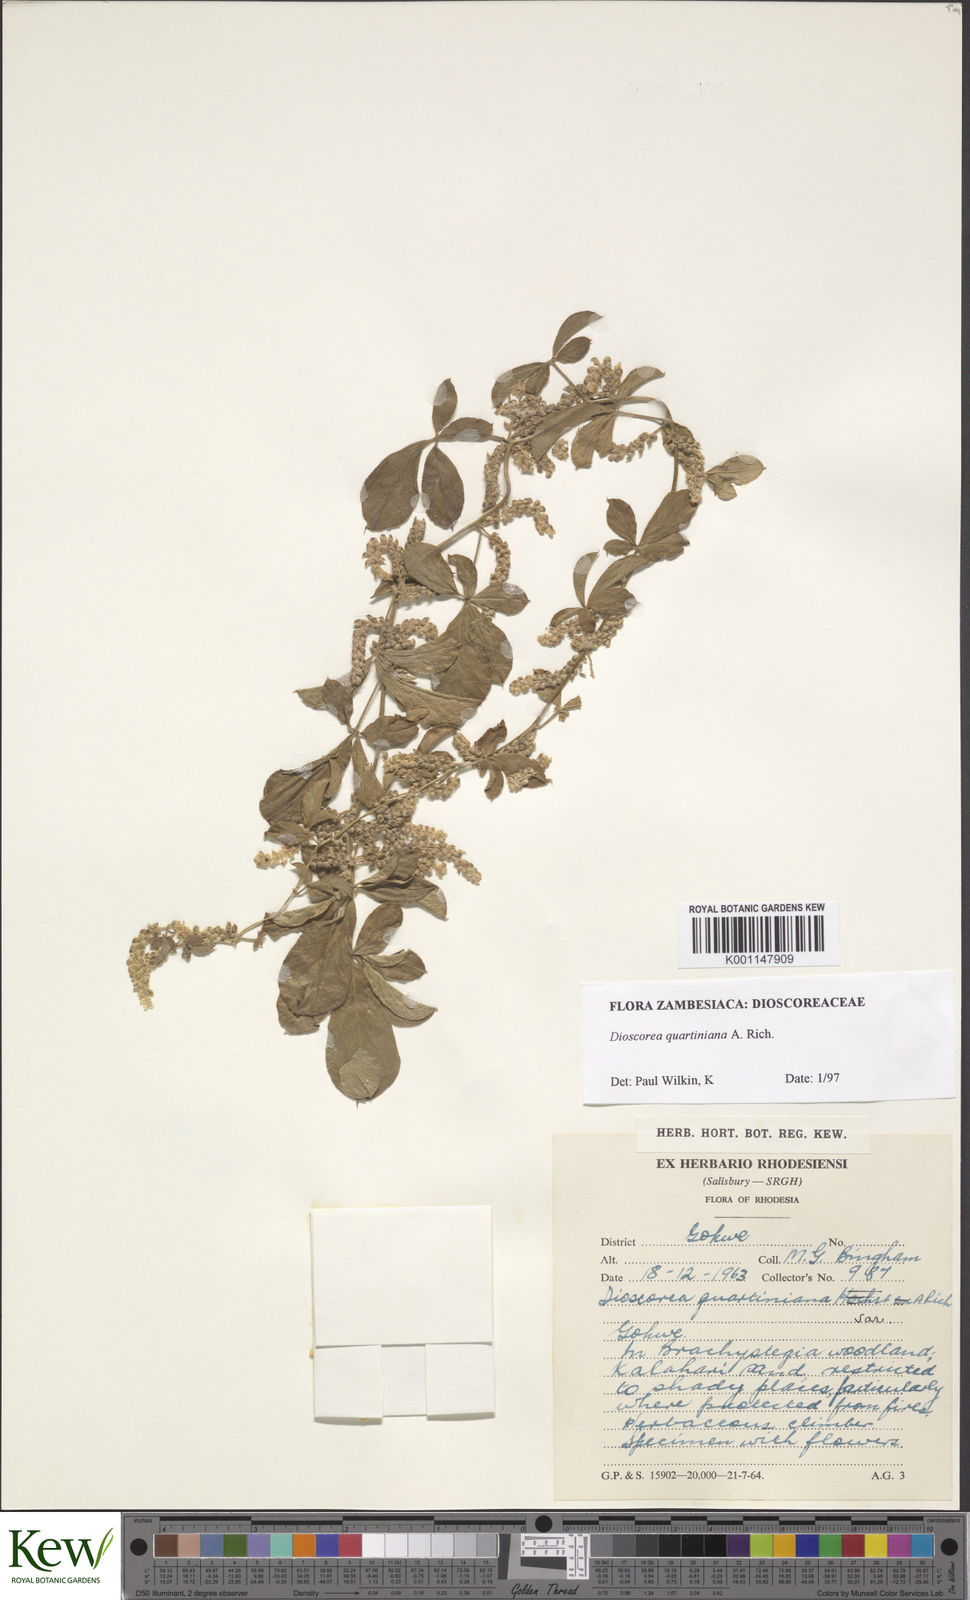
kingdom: Plantae
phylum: Tracheophyta
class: Liliopsida
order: Dioscoreales
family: Dioscoreaceae
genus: Dioscorea
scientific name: Dioscorea quartiniana
